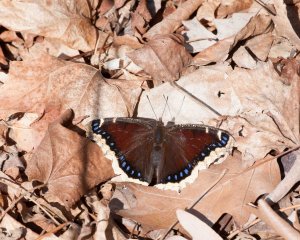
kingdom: Animalia
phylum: Arthropoda
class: Insecta
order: Lepidoptera
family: Nymphalidae
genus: Nymphalis
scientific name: Nymphalis antiopa
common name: Mourning Cloak
